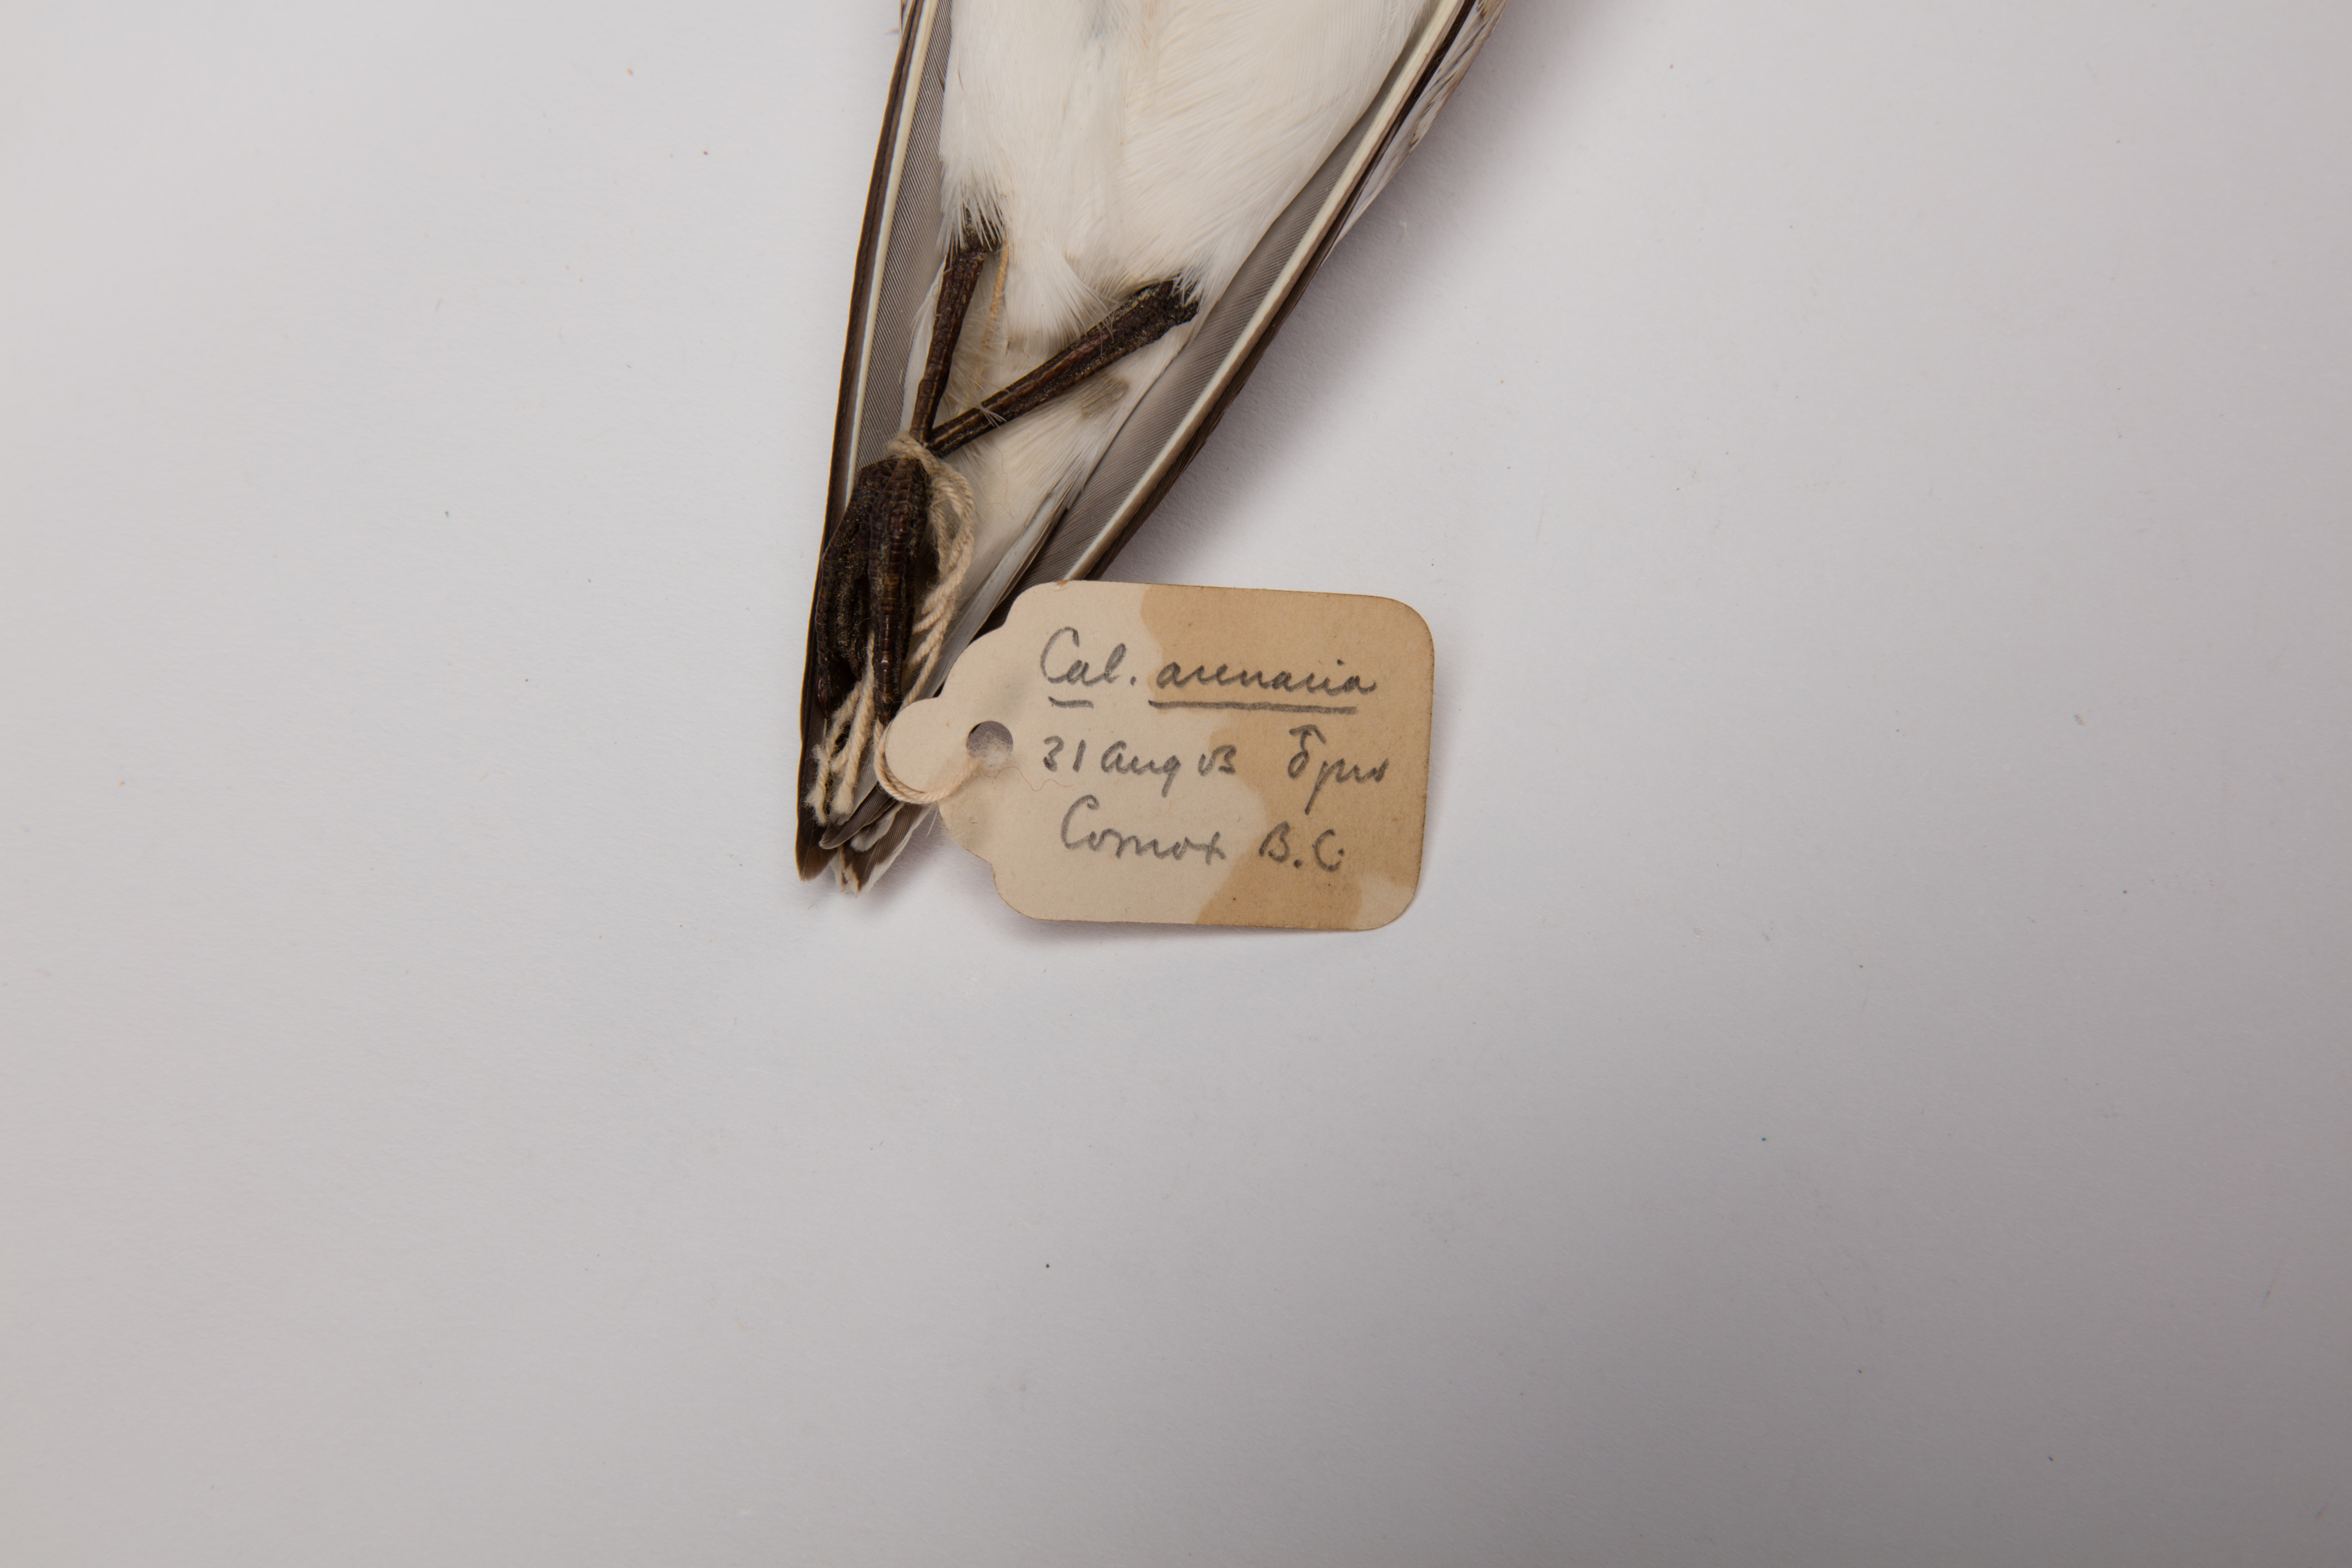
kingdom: Animalia
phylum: Chordata
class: Aves
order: Charadriiformes
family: Scolopacidae
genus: Calidris
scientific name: Calidris alba
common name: Sanderling
